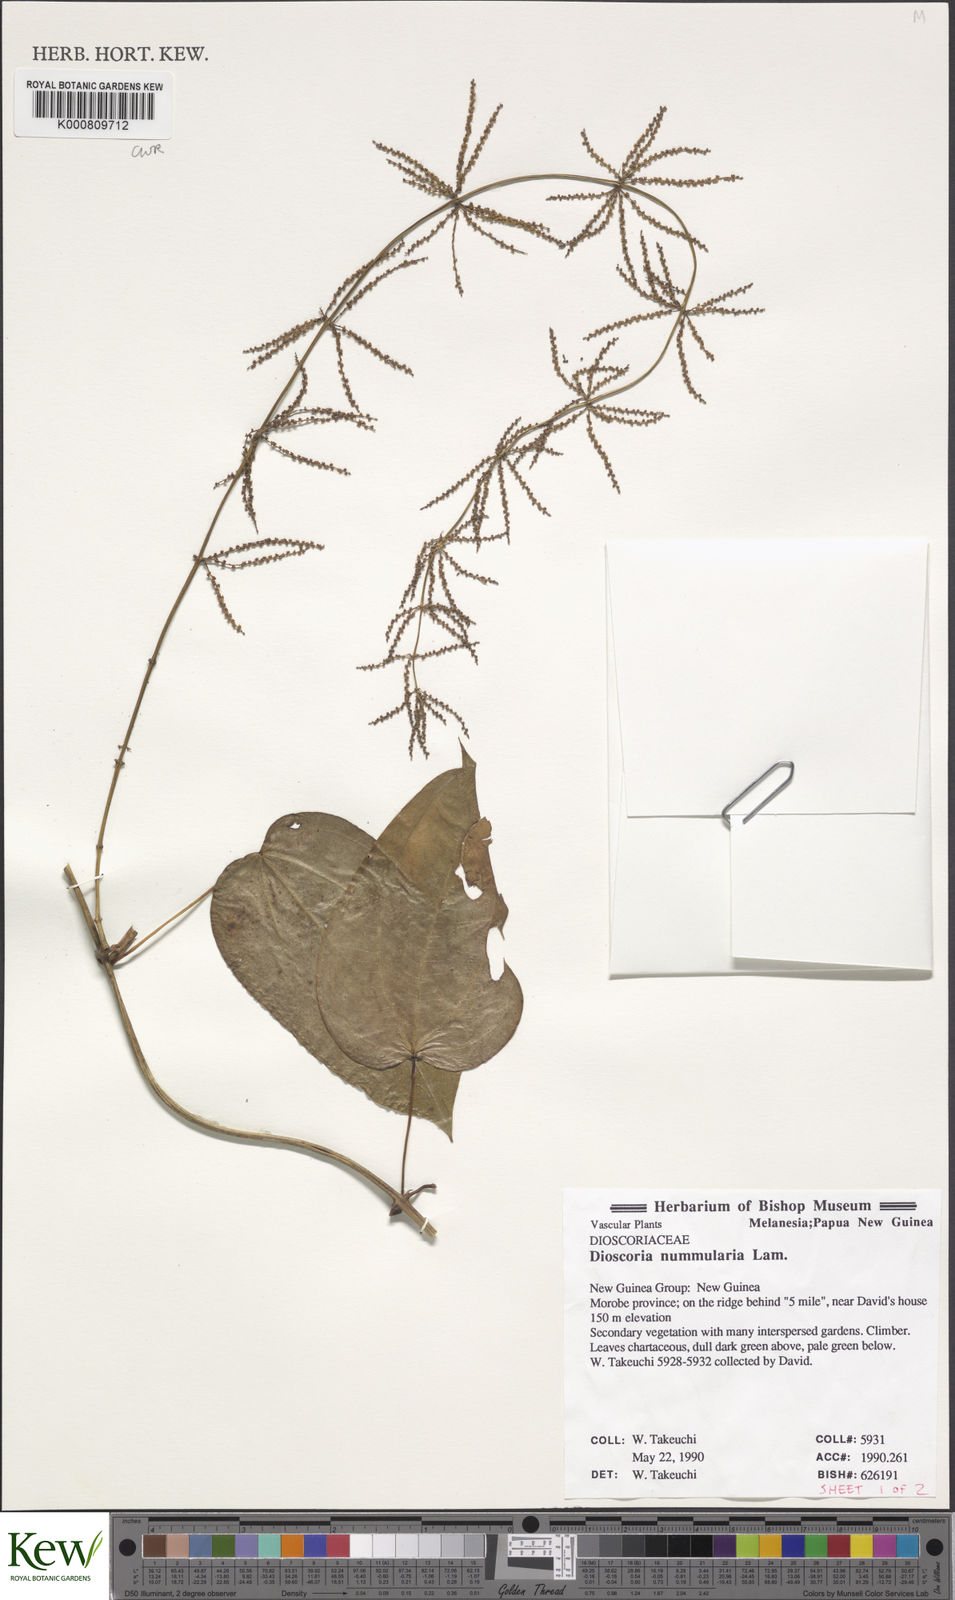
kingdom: Plantae
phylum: Tracheophyta
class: Liliopsida
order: Dioscoreales
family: Dioscoreaceae
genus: Dioscorea
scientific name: Dioscorea nummularia
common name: Pacific yam
